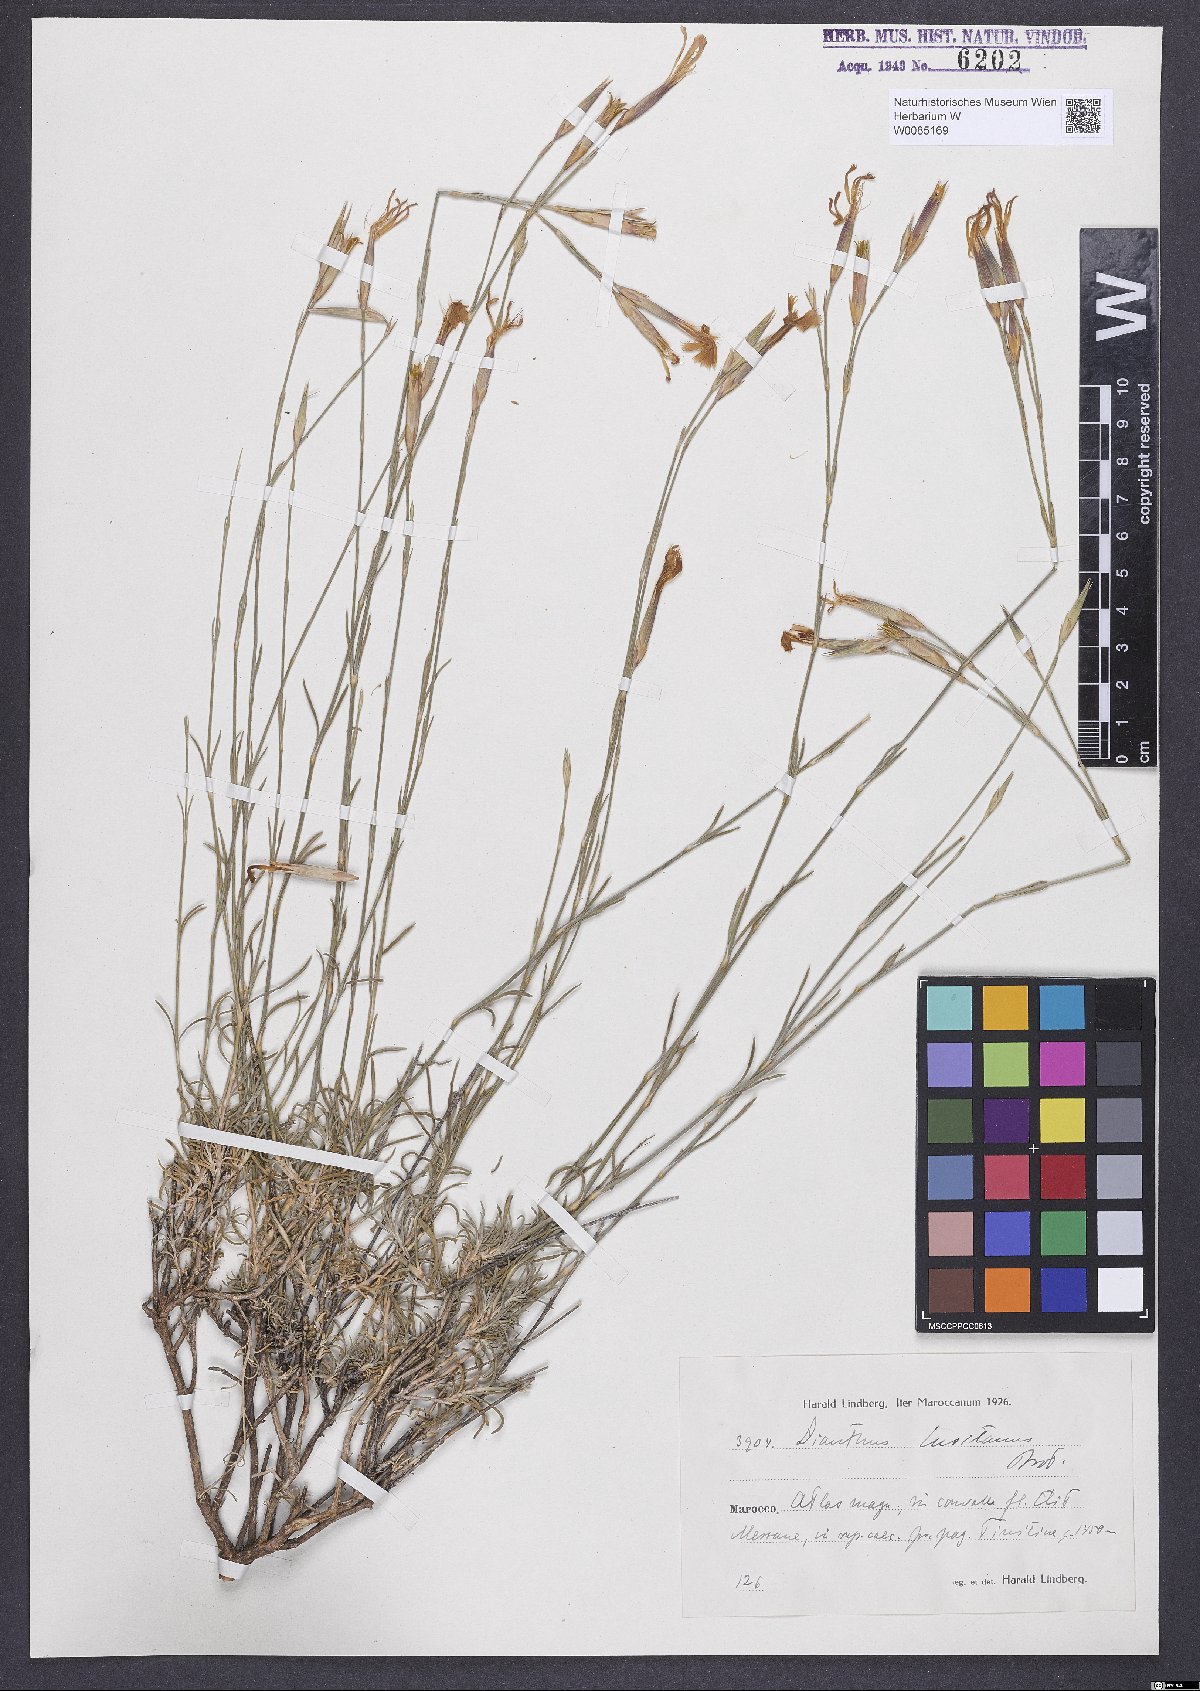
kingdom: Plantae
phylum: Tracheophyta
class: Magnoliopsida
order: Caryophyllales
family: Caryophyllaceae
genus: Dianthus
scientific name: Dianthus lusitanus
